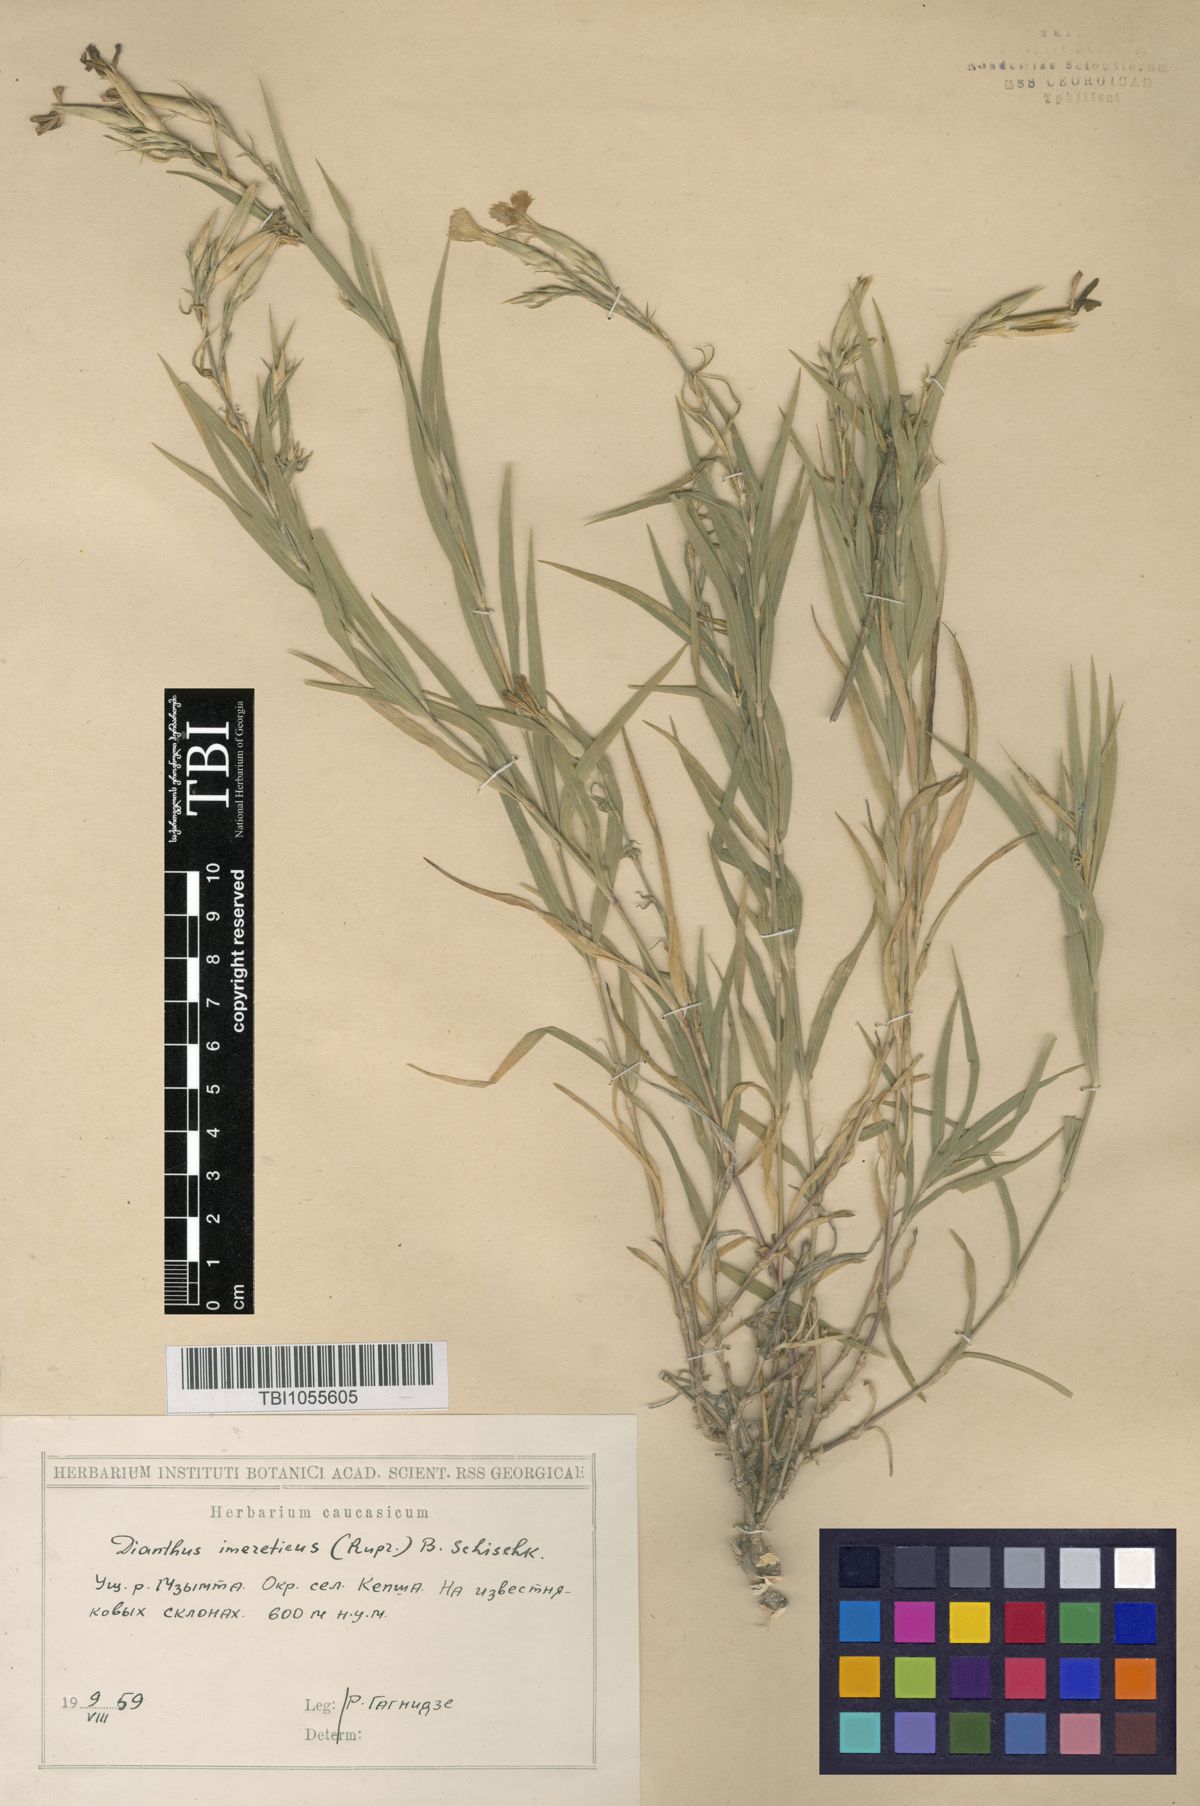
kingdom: Plantae
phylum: Tracheophyta
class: Magnoliopsida
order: Caryophyllales
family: Caryophyllaceae
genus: Dianthus
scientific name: Dianthus imereticus
